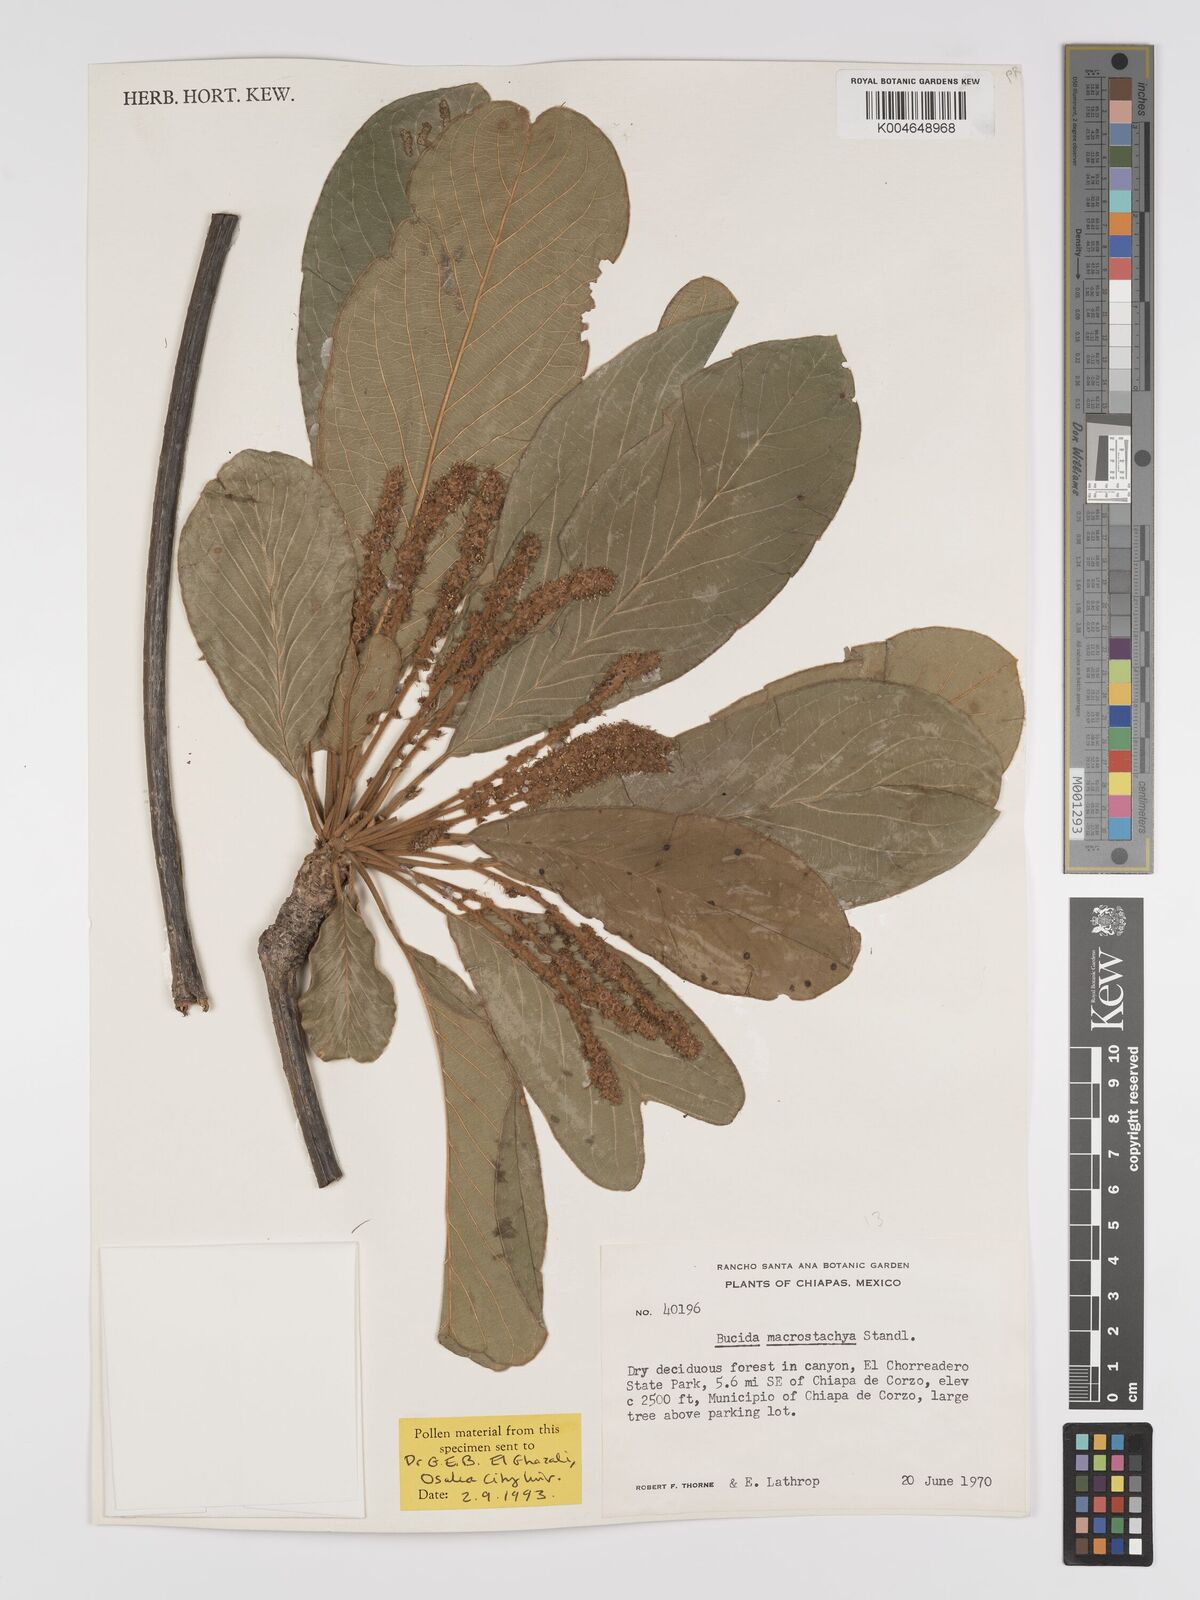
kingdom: Plantae
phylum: Tracheophyta
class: Magnoliopsida
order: Myrtales
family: Combretaceae
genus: Terminalia
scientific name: Terminalia macrostachya
